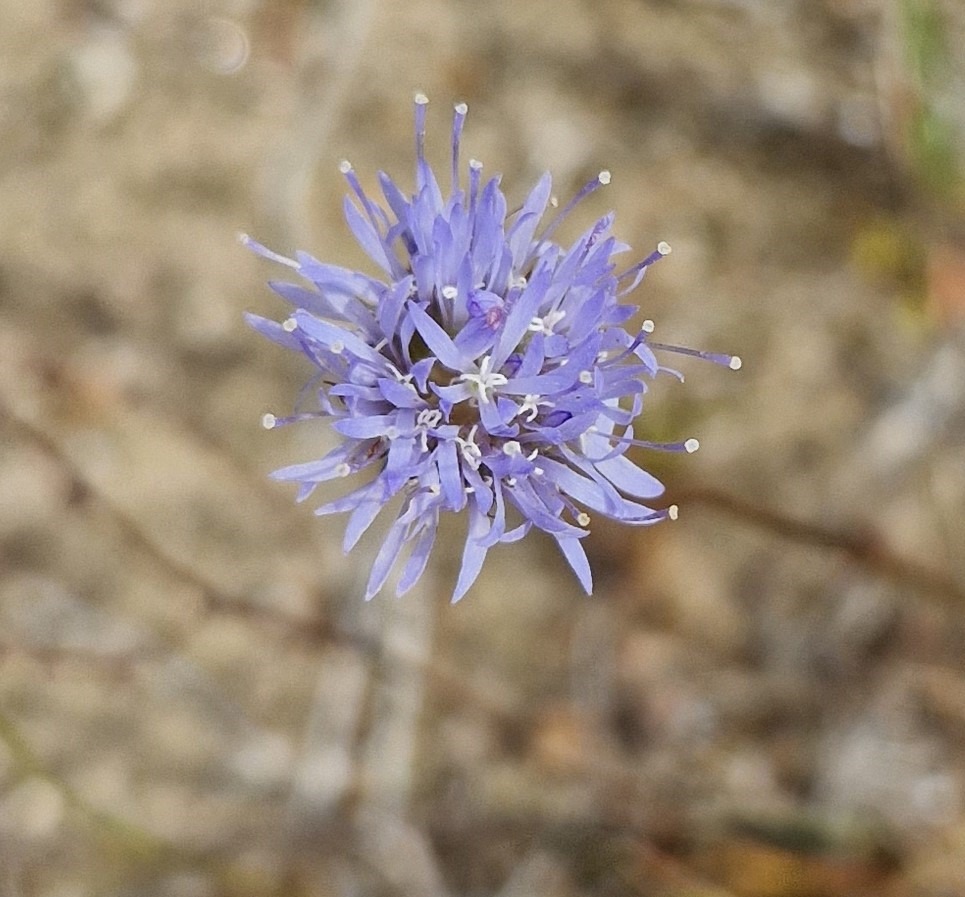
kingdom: Plantae
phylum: Tracheophyta
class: Magnoliopsida
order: Asterales
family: Campanulaceae
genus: Jasione
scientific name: Jasione montana
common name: Blåmunke
